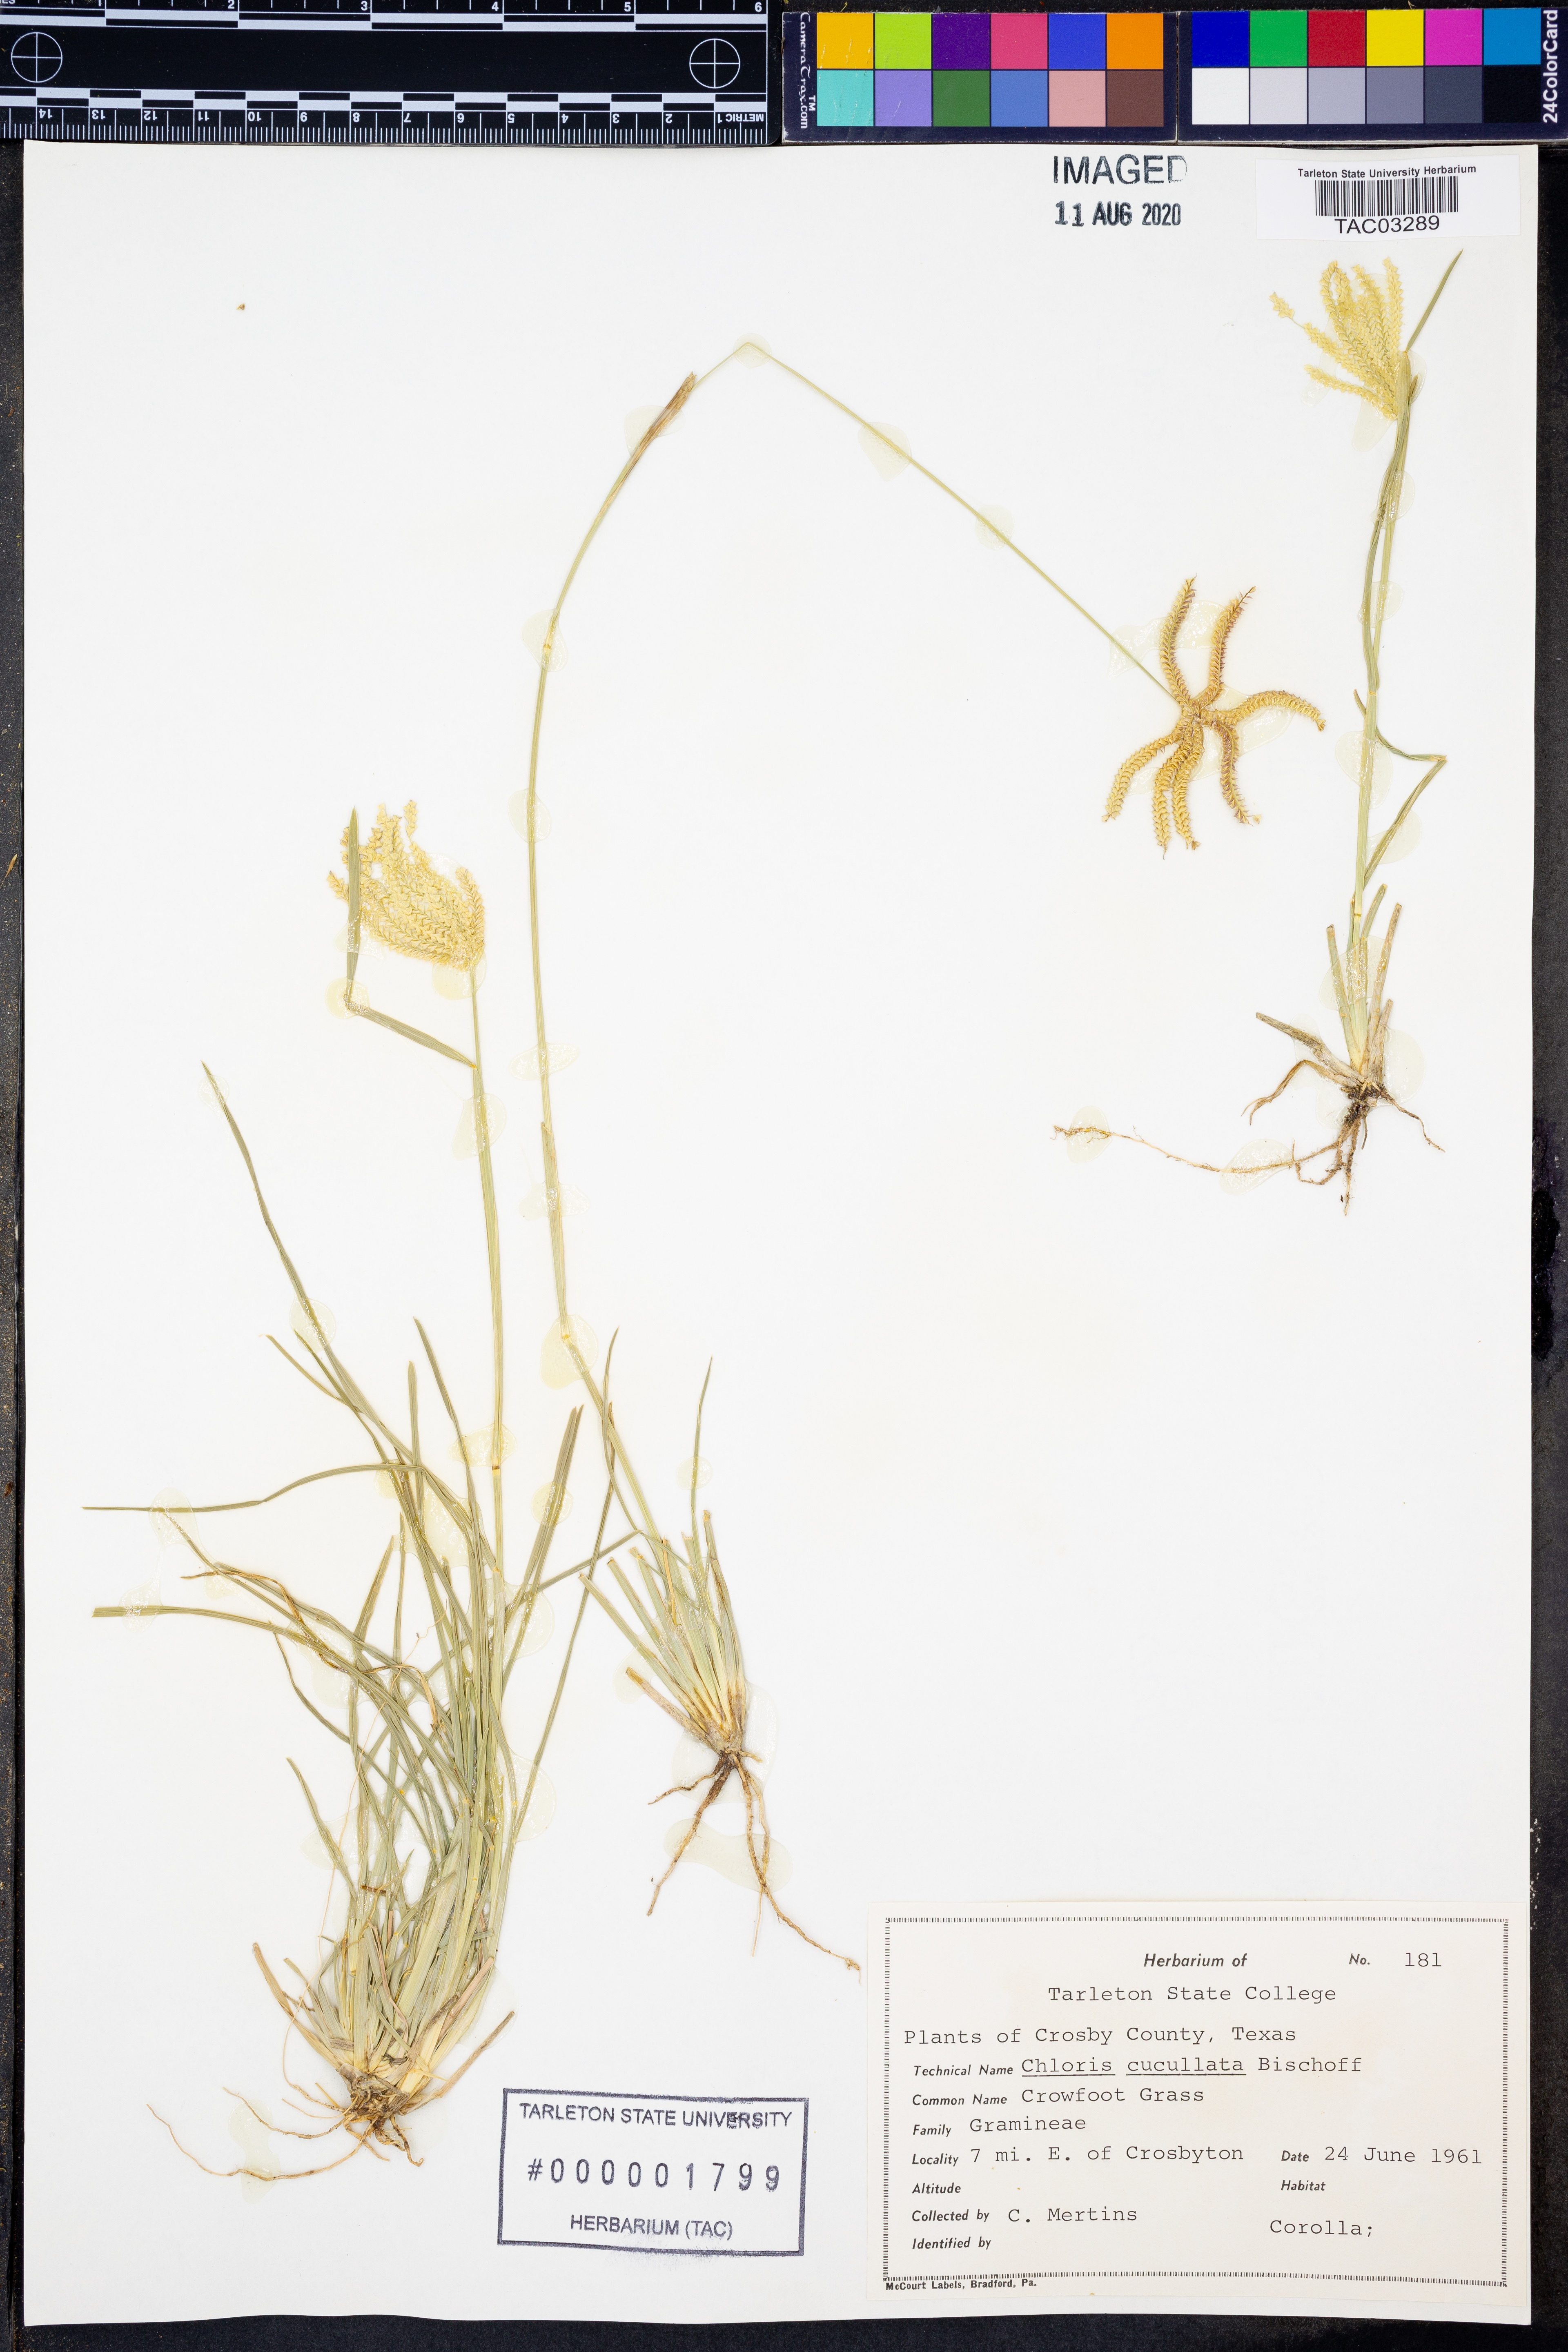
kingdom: Plantae
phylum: Tracheophyta
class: Liliopsida
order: Poales
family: Poaceae
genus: Chloris
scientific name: Chloris cucullata
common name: Hooded windmill grass
